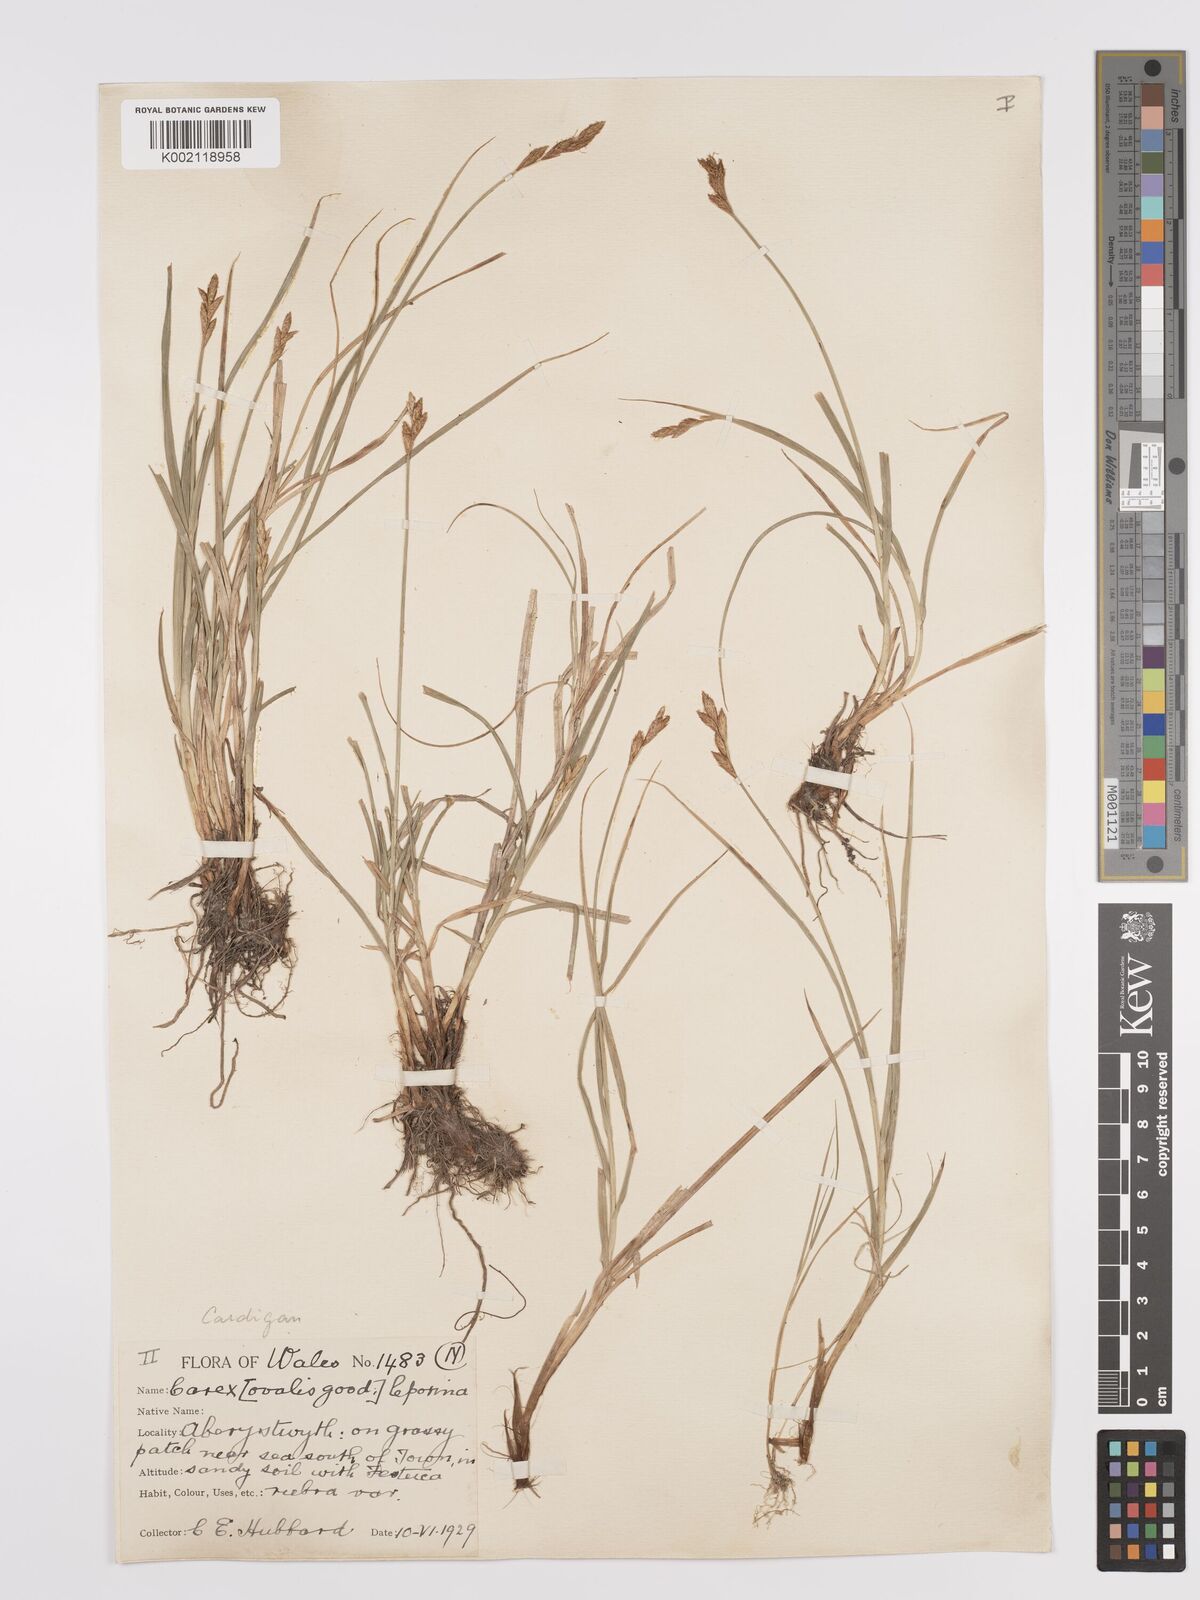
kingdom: Plantae
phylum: Tracheophyta
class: Liliopsida
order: Poales
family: Cyperaceae
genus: Carex
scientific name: Carex leporina
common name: Oval sedge
